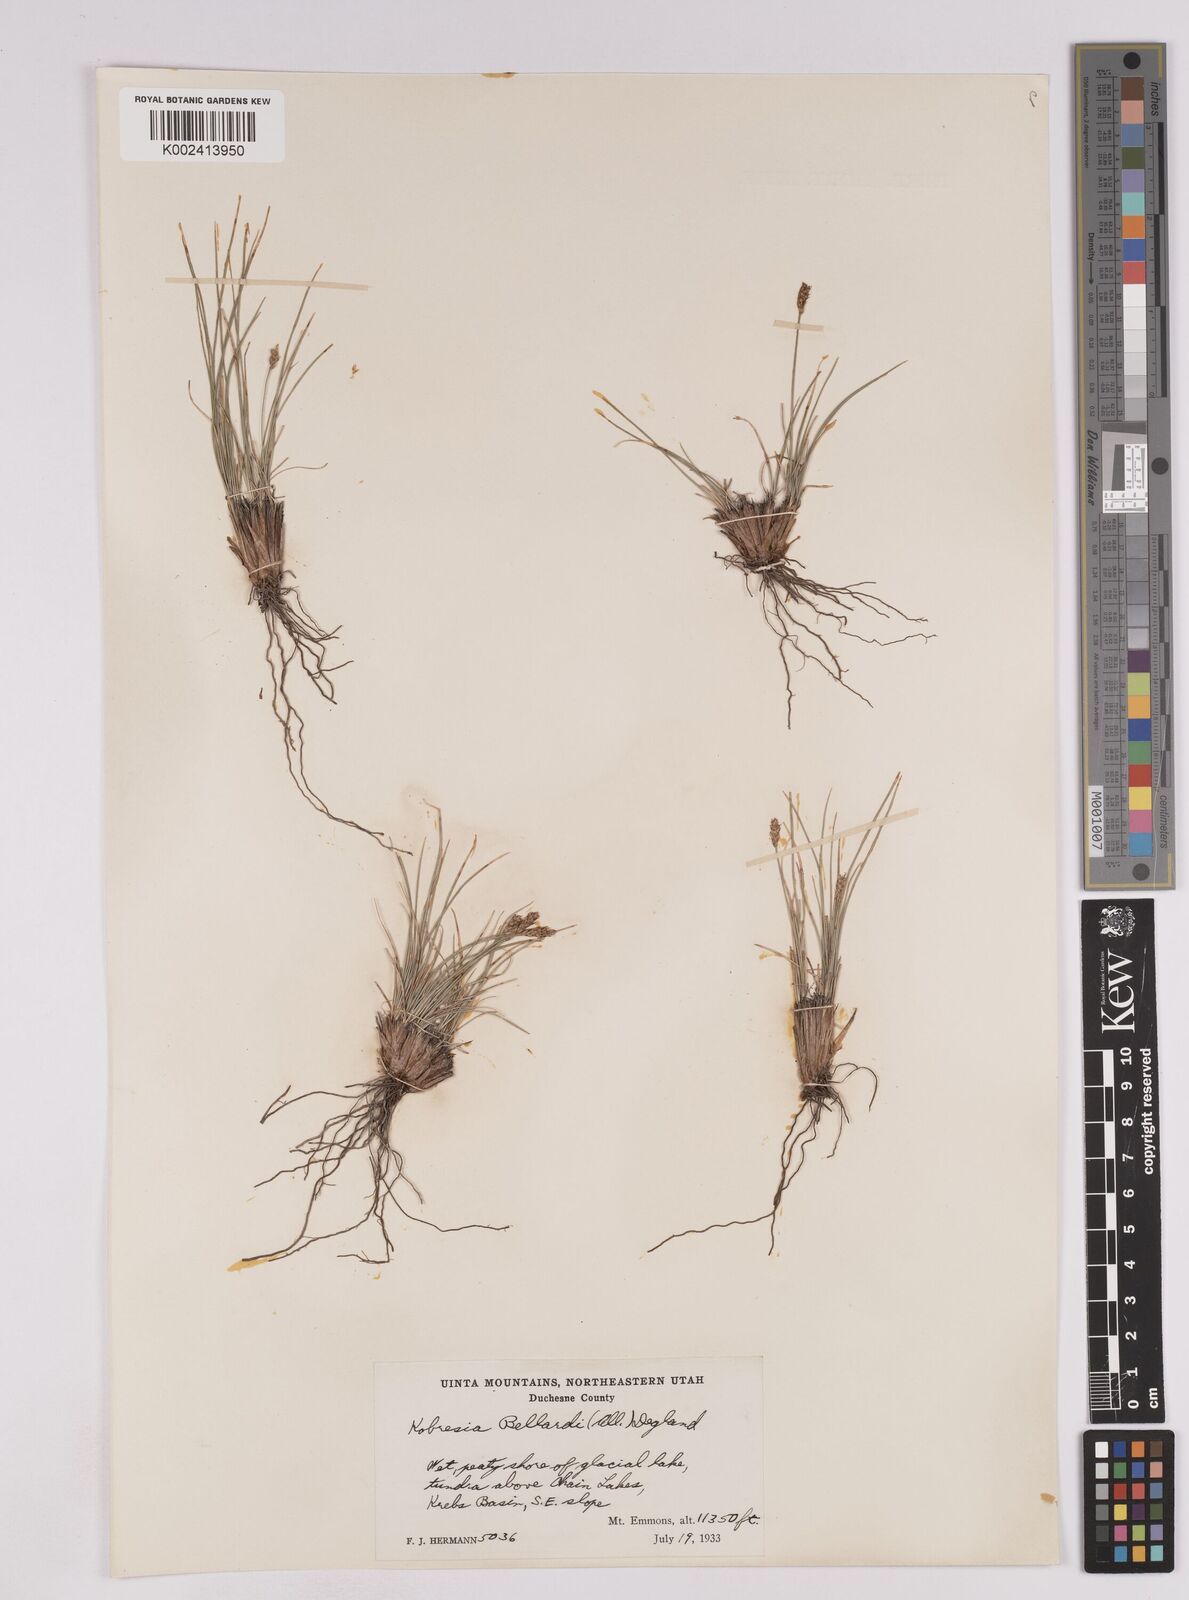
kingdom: Plantae
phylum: Tracheophyta
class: Liliopsida
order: Poales
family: Cyperaceae
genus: Carex
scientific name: Carex myosuroides
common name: Bellard's bog sedge
